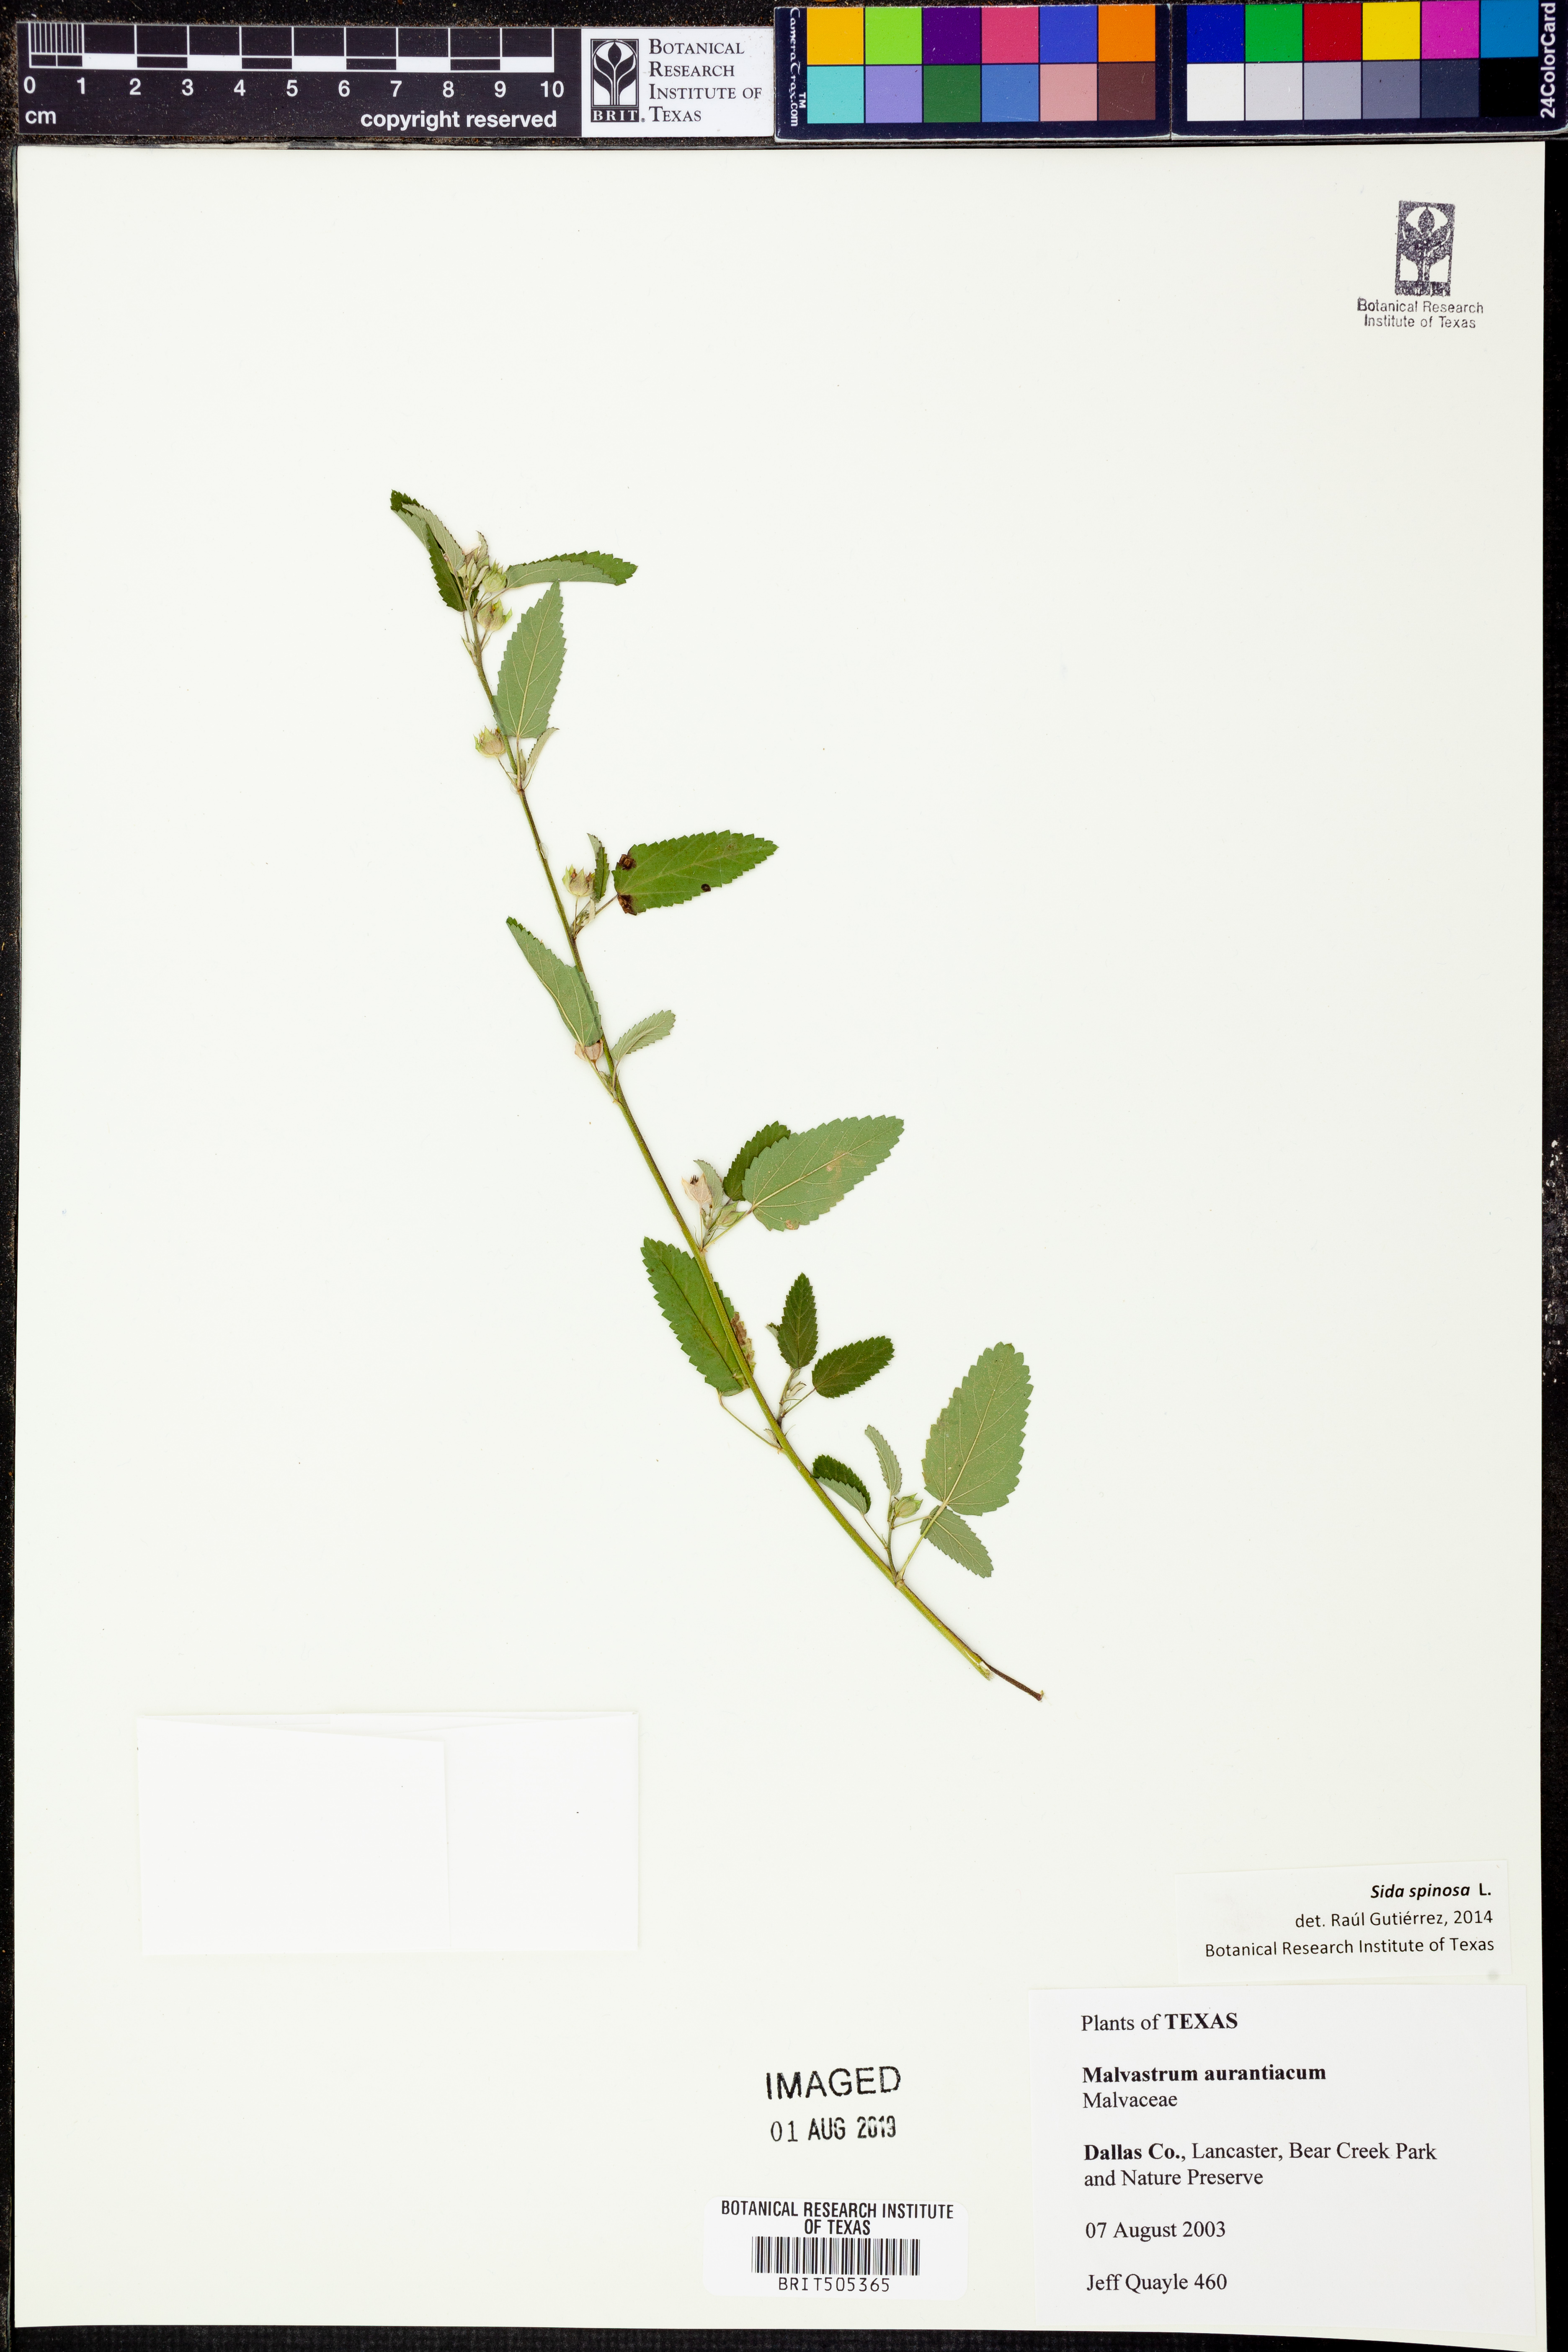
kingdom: Plantae
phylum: Tracheophyta
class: Magnoliopsida
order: Malvales
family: Malvaceae
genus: Sida
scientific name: Sida spinosa
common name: Prickly fanpetals
